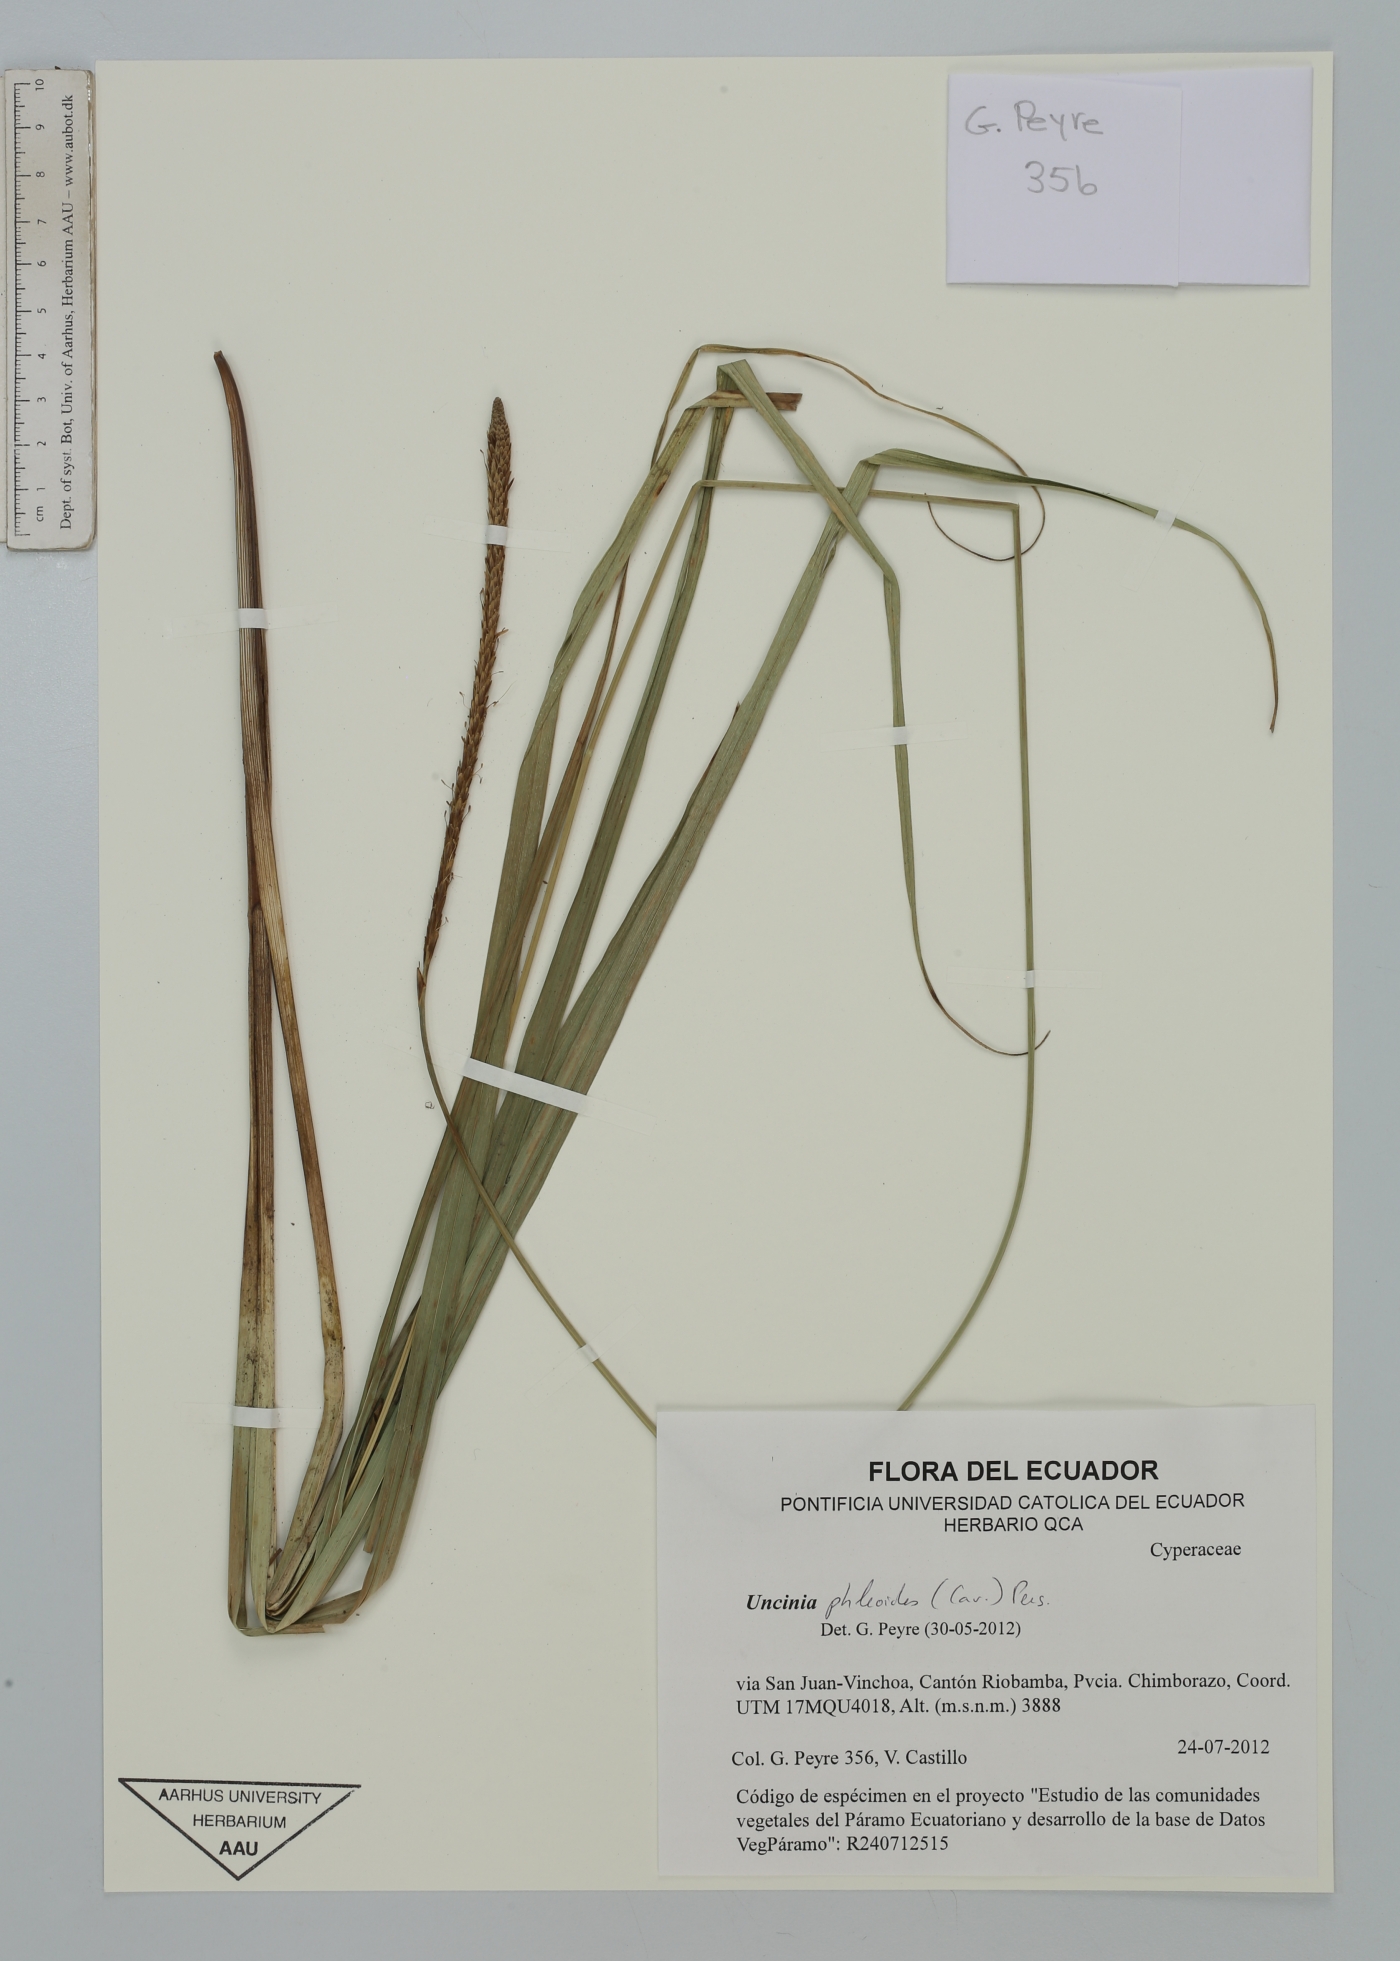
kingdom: Plantae
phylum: Tracheophyta
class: Liliopsida
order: Poales
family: Cyperaceae
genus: Carex
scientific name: Carex phleoides
